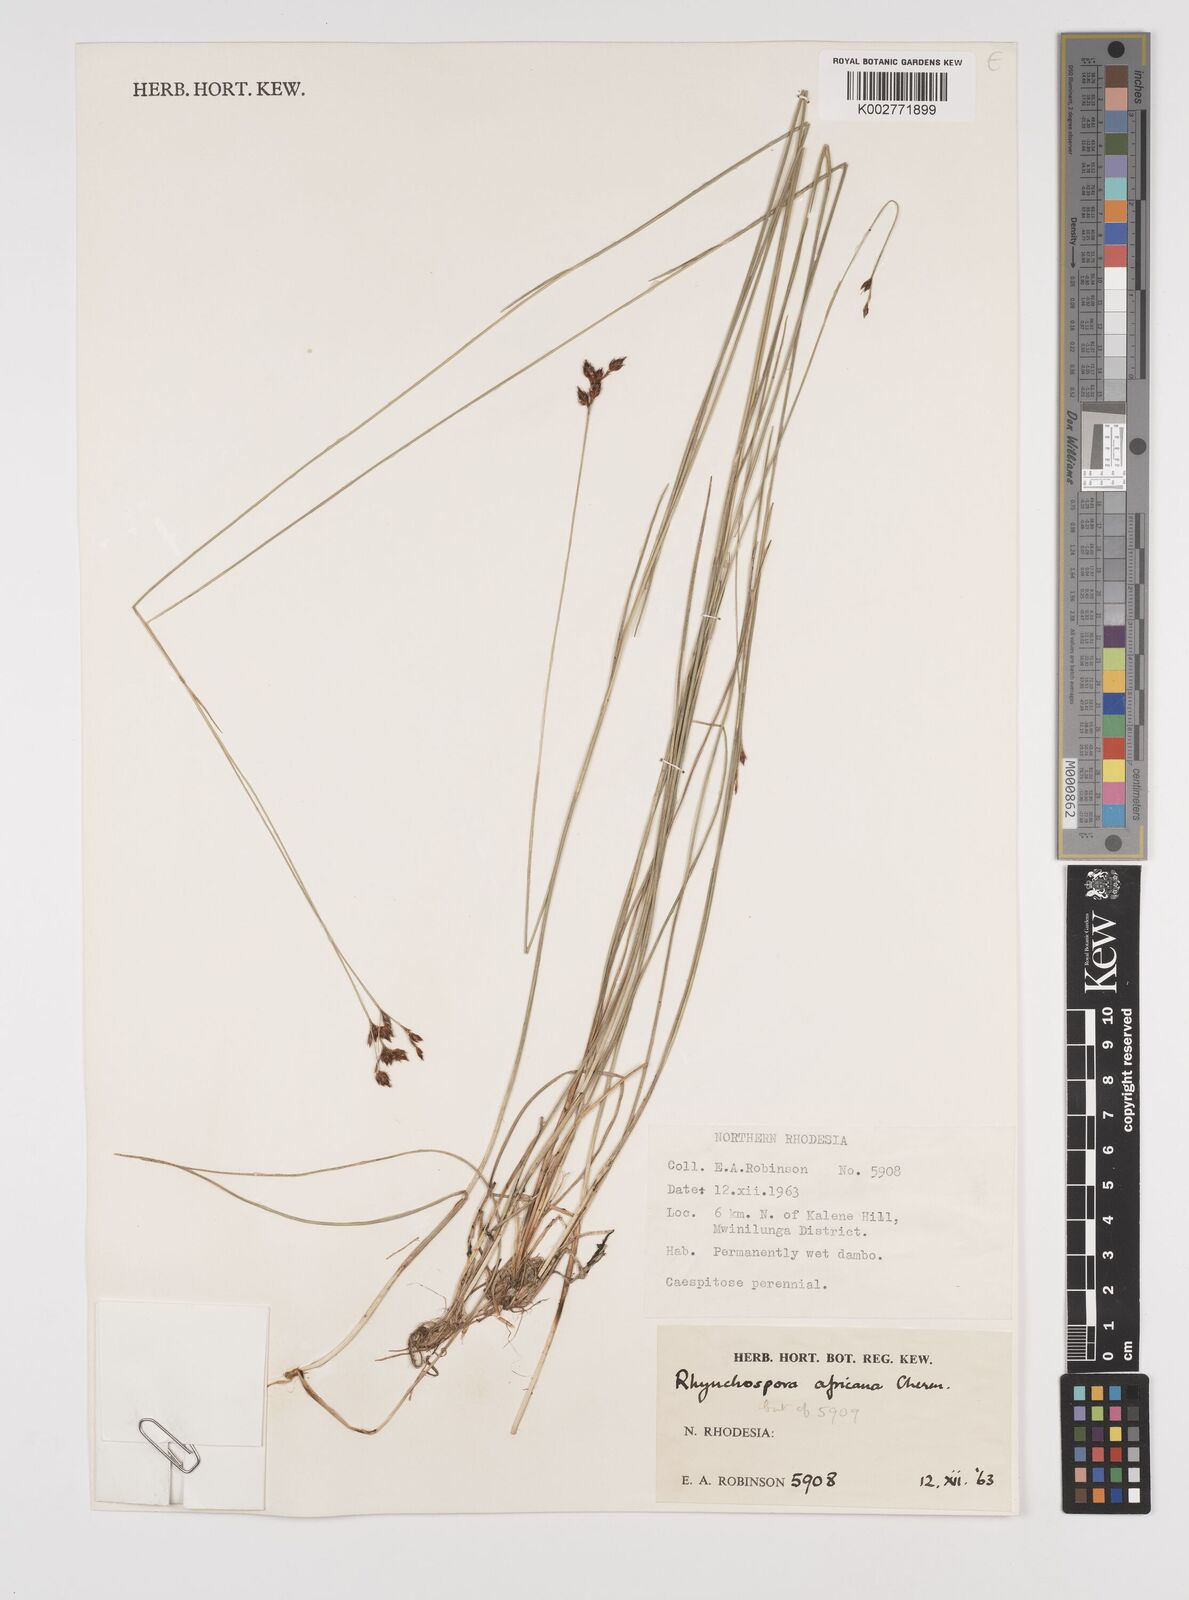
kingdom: Plantae
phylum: Tracheophyta
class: Liliopsida
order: Poales
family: Cyperaceae
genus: Rhynchospora
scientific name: Rhynchospora angolensis
